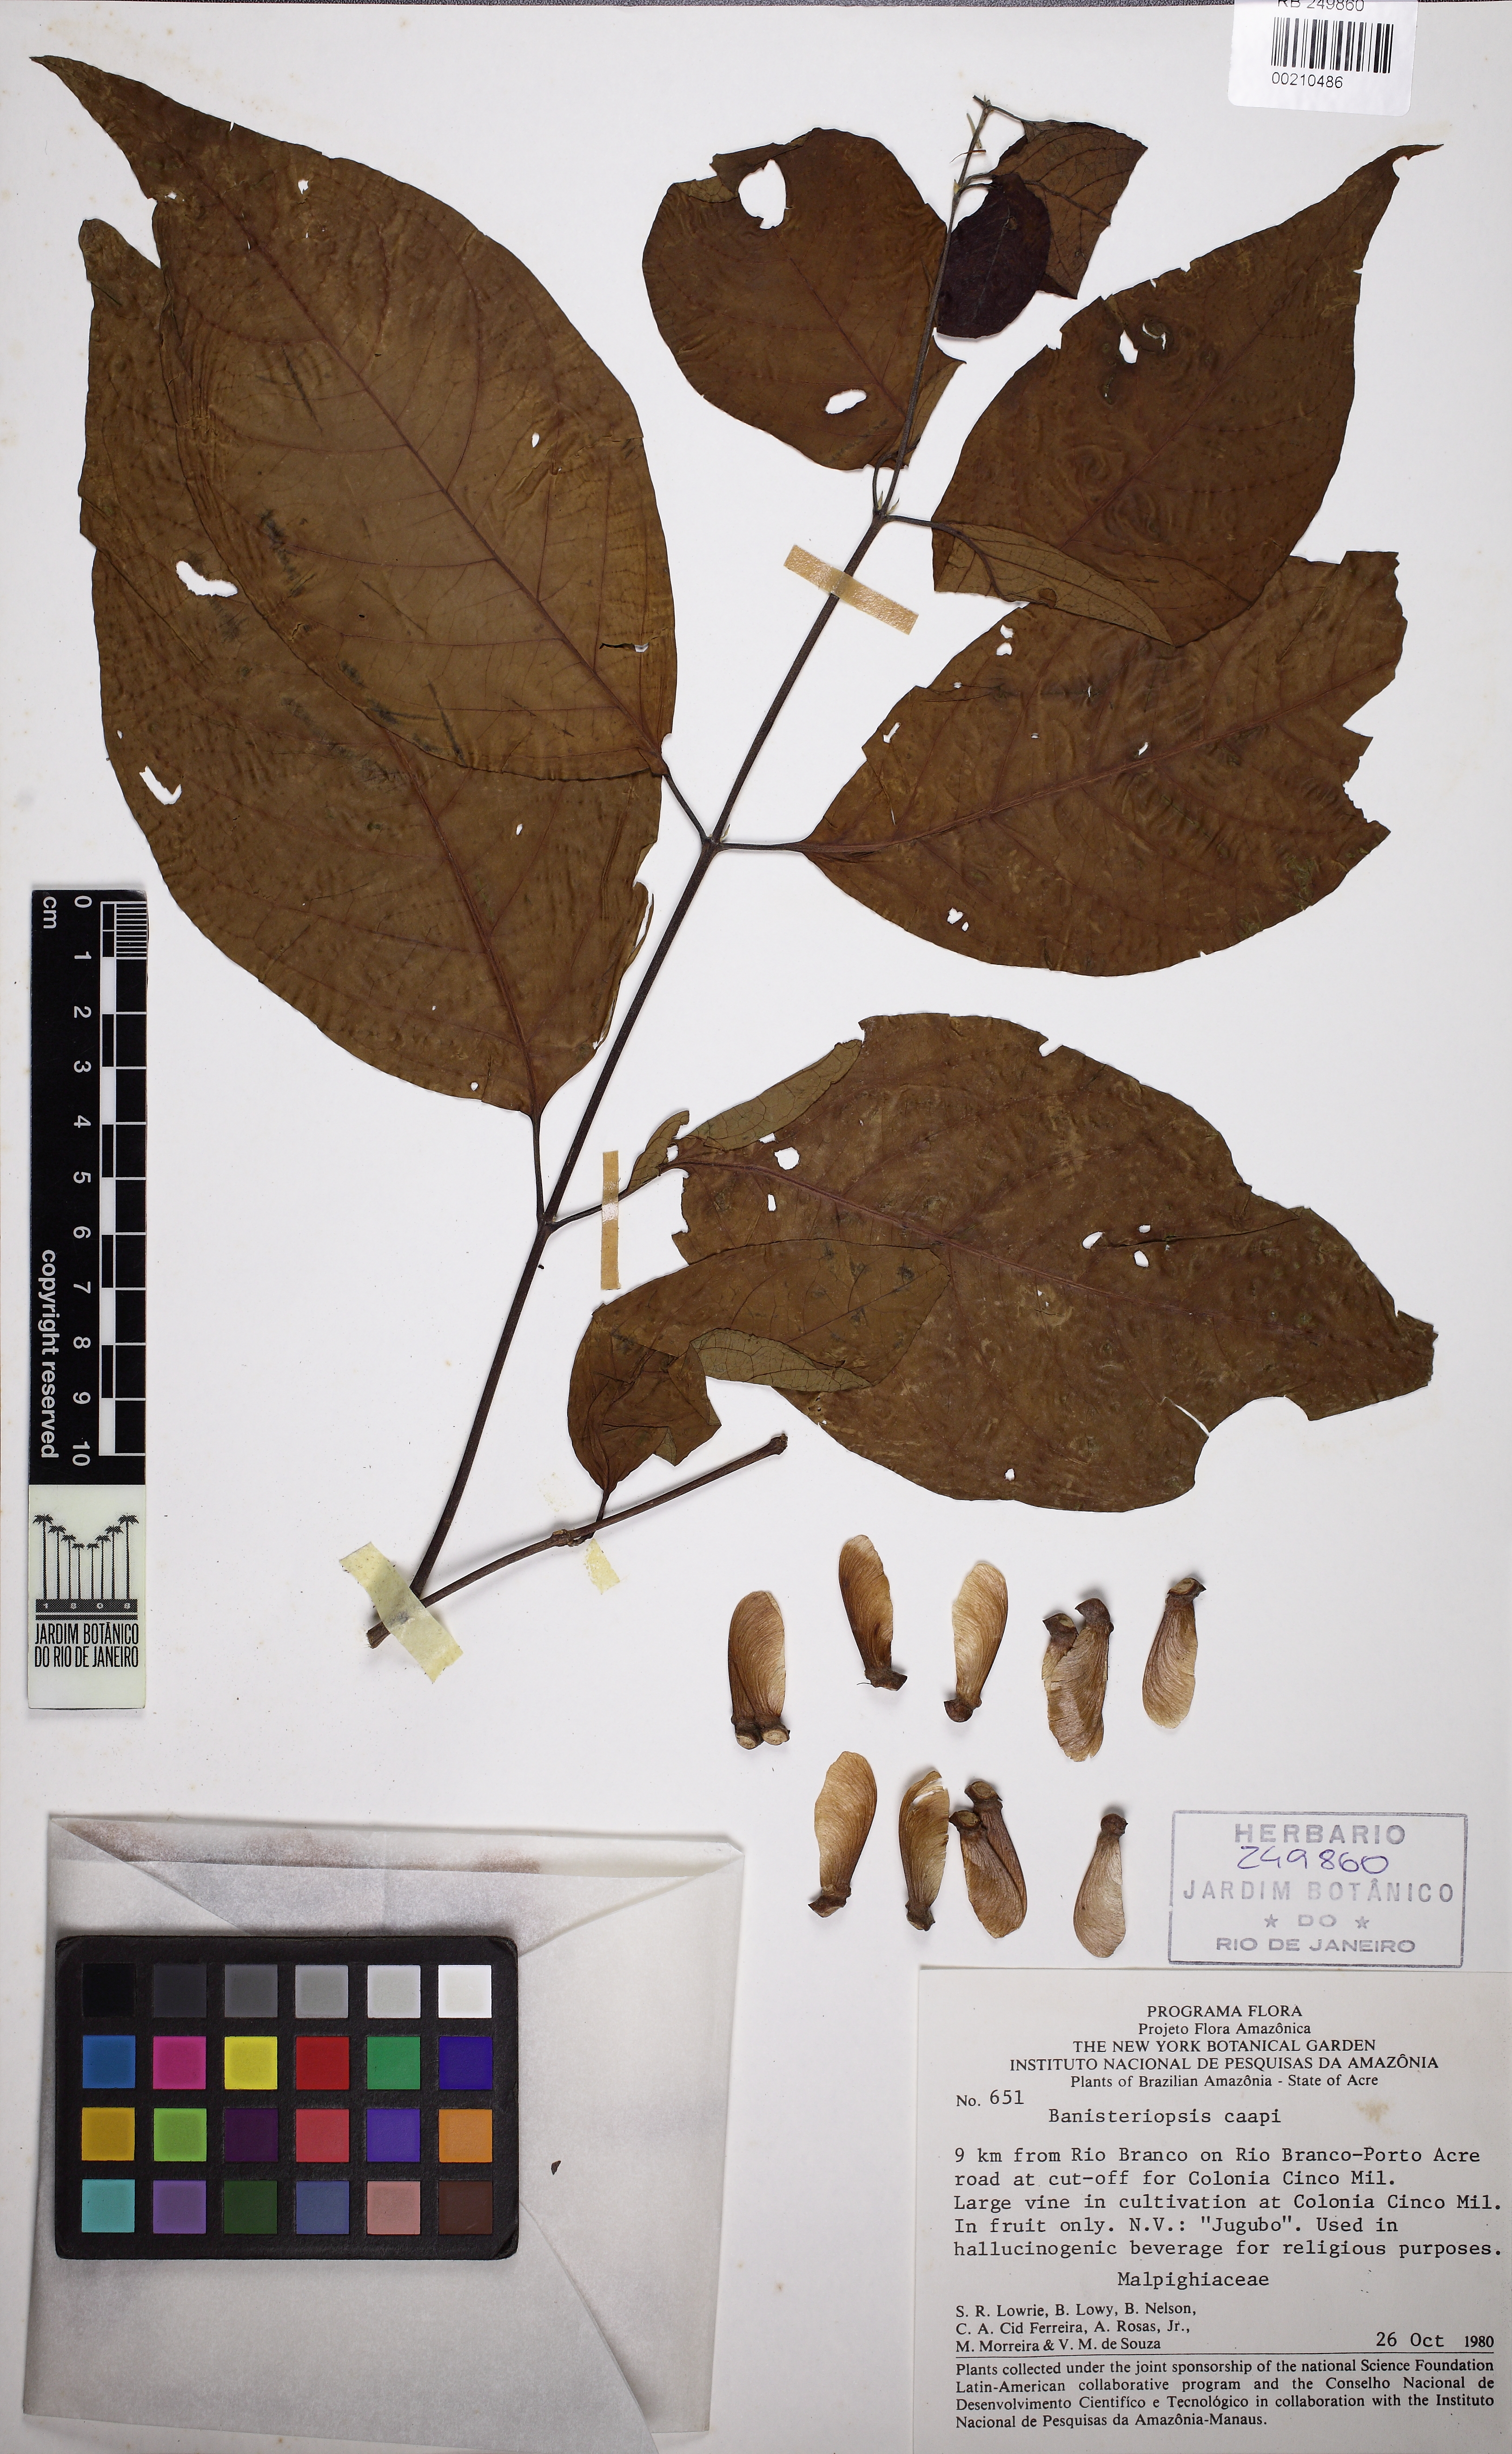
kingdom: Plantae
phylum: Tracheophyta
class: Magnoliopsida
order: Malpighiales
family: Malpighiaceae
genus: Banisteriopsis
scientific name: Banisteriopsis caapi
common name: Soulvine
